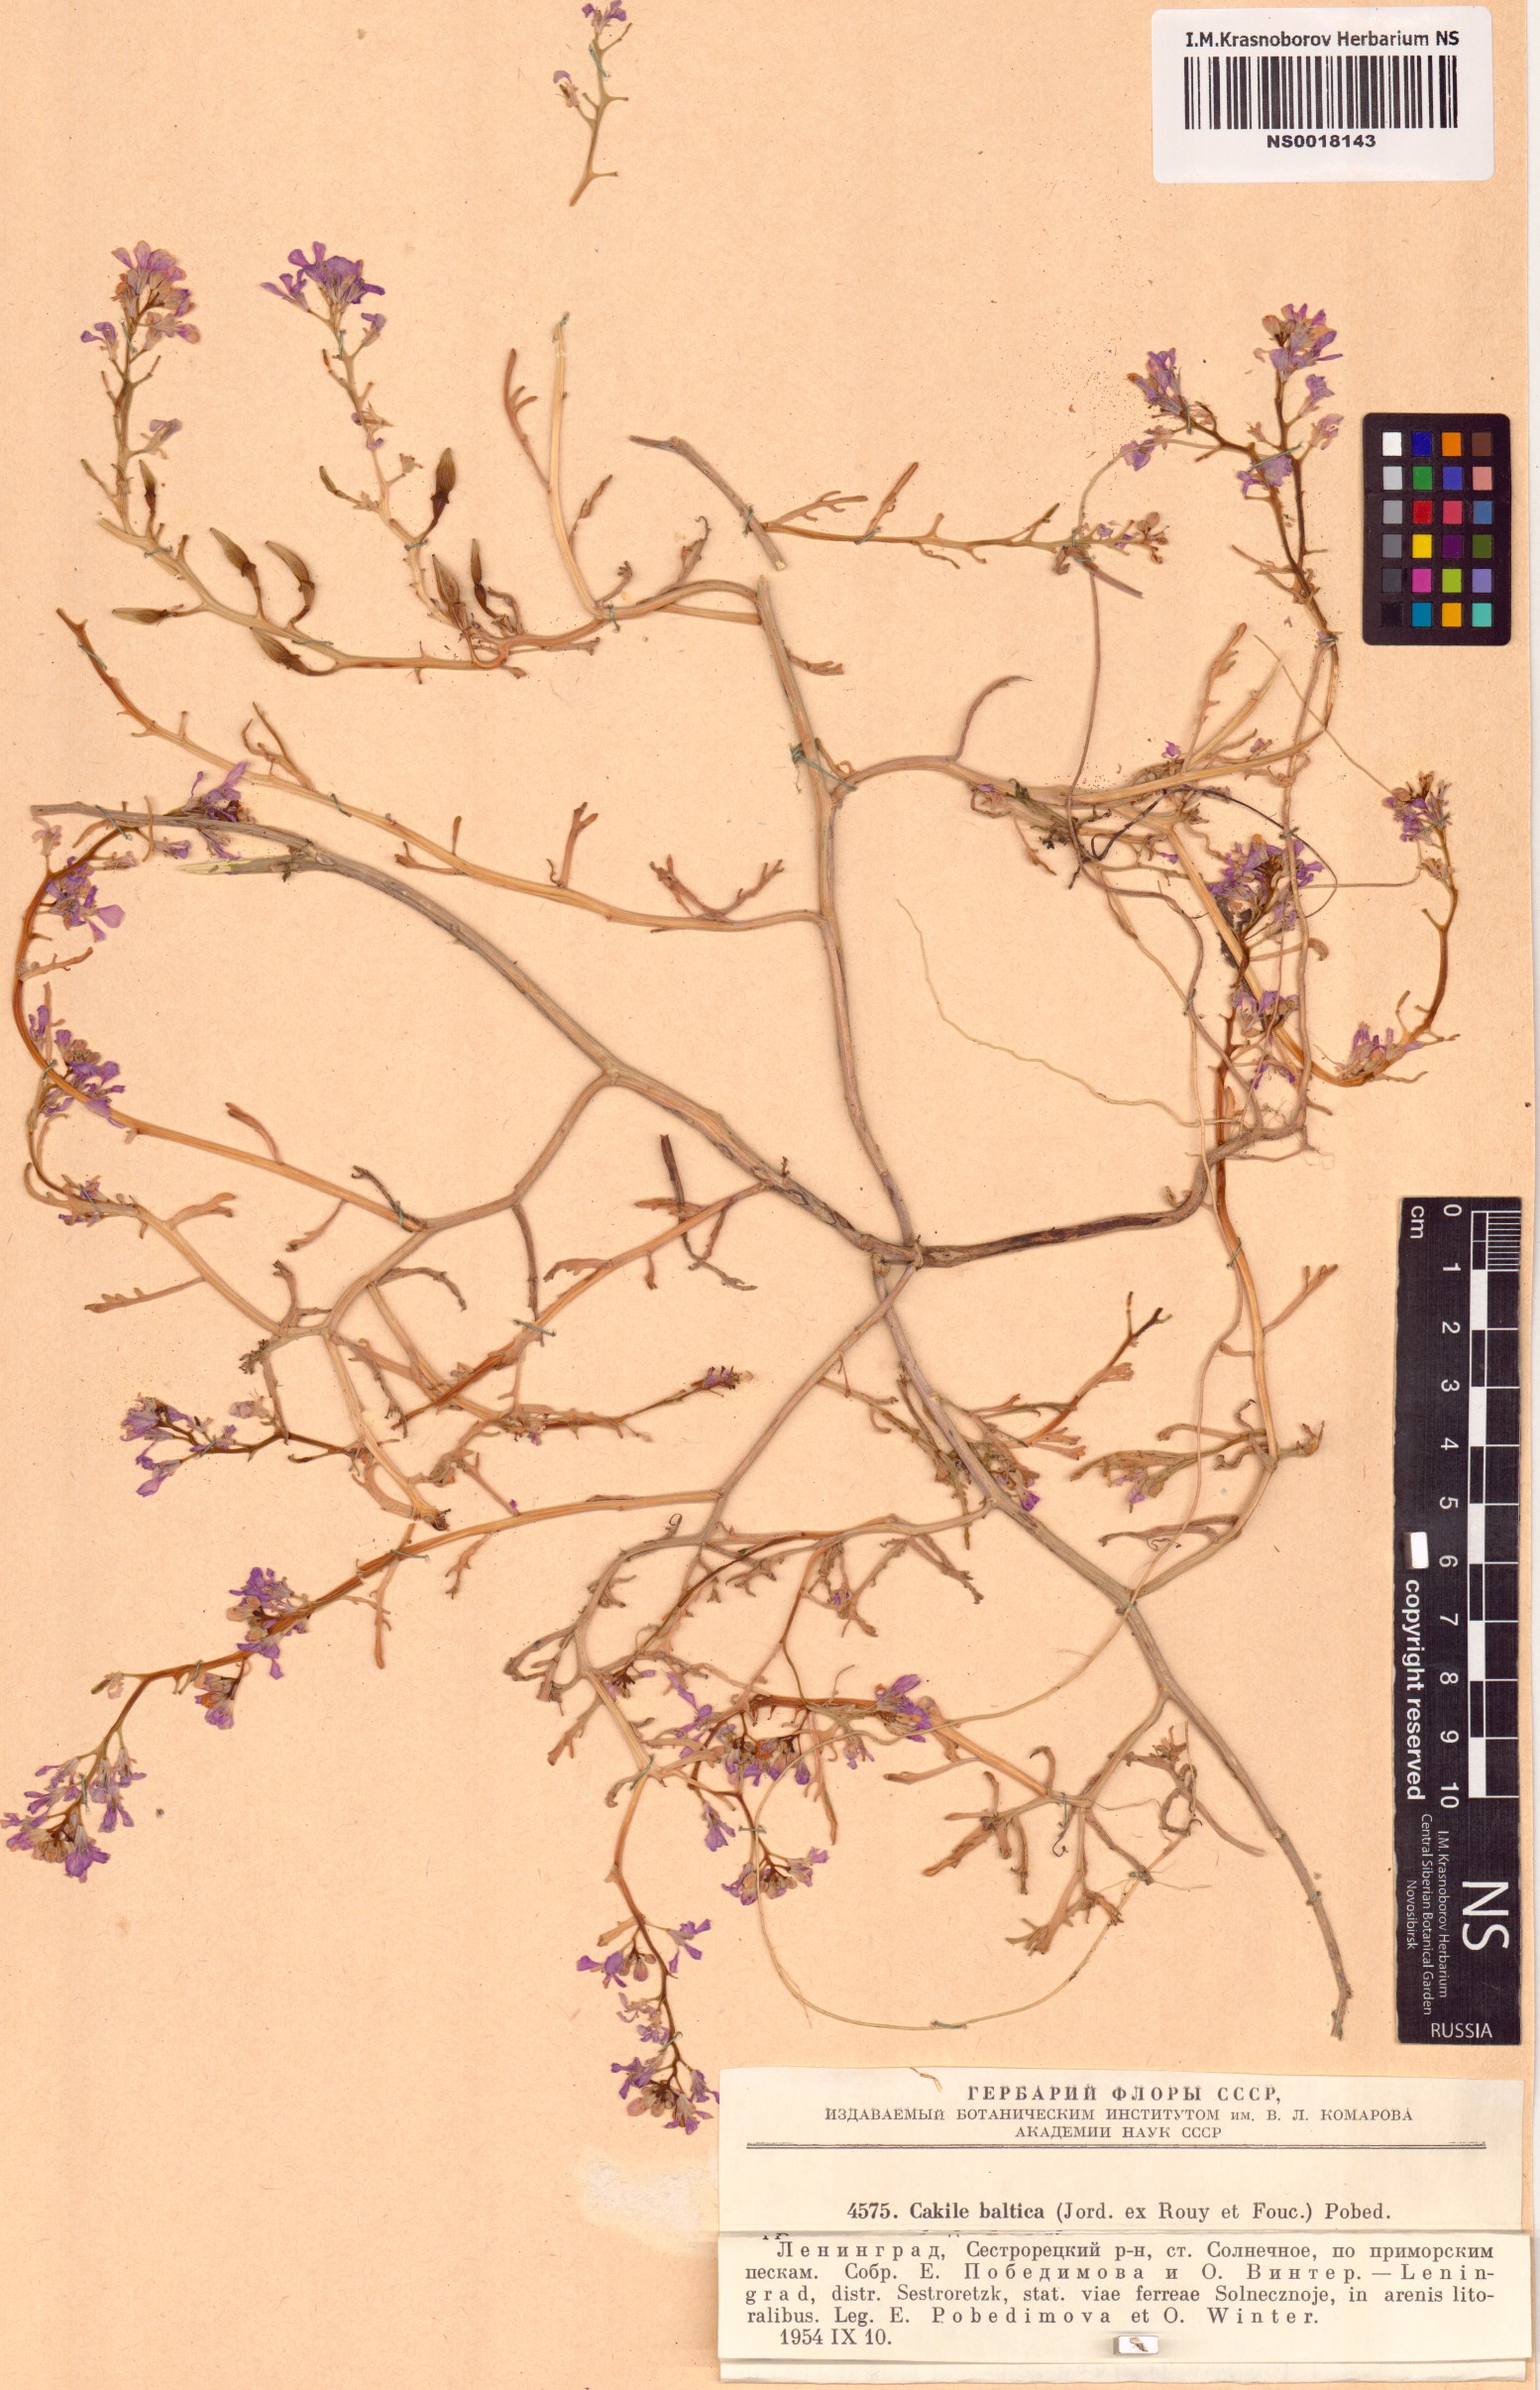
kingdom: Plantae
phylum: Tracheophyta
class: Magnoliopsida
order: Brassicales
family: Brassicaceae
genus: Cakile
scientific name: Cakile maritima
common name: Sea rocket
